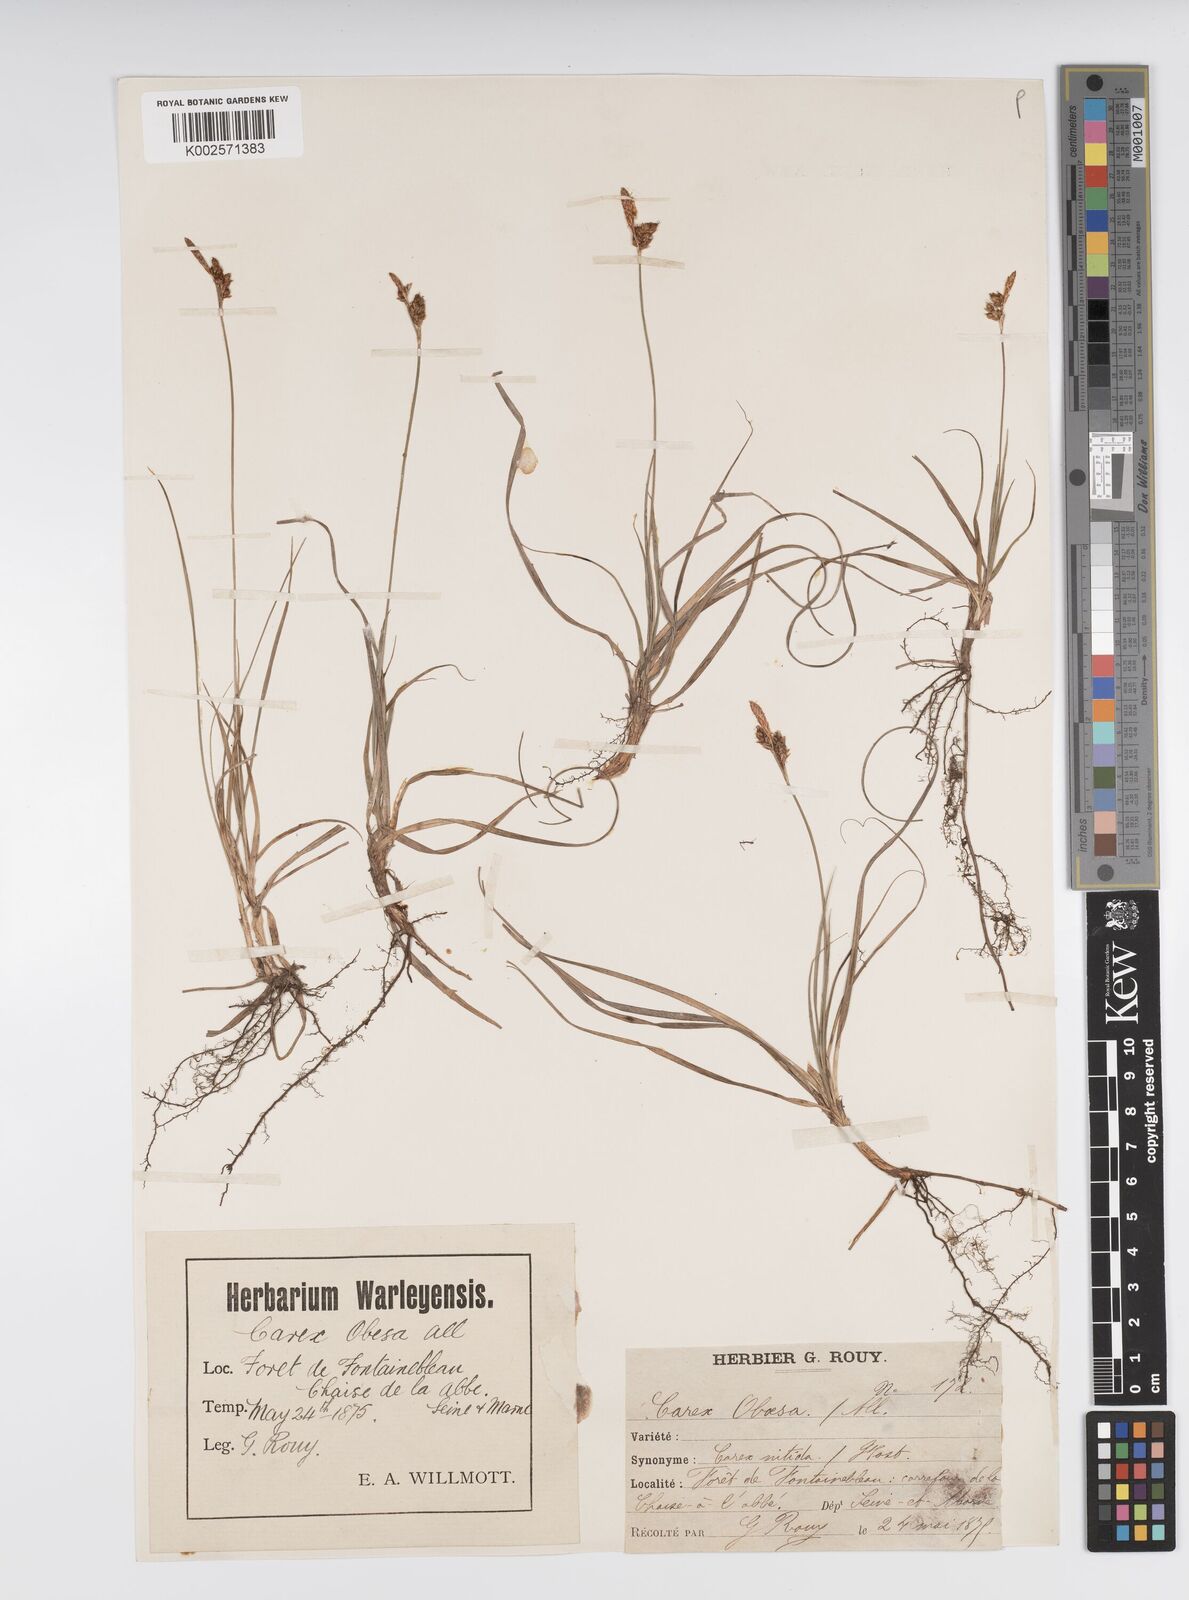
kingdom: Plantae
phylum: Tracheophyta
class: Liliopsida
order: Poales
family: Cyperaceae
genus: Carex
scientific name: Carex liparocarpos
